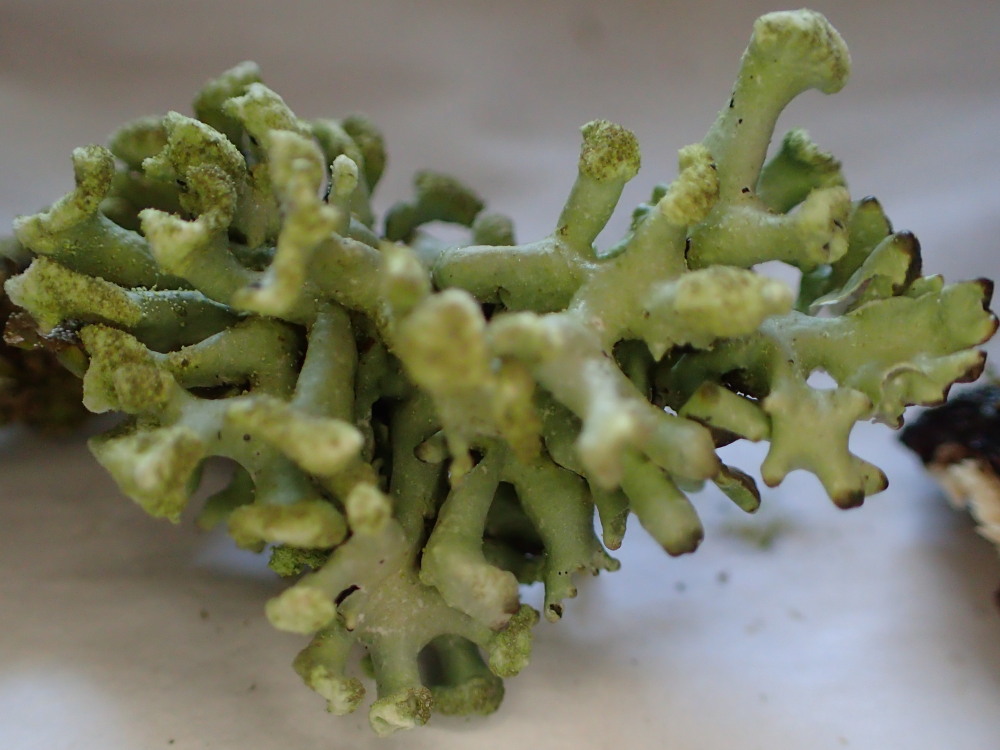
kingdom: Fungi
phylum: Ascomycota
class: Lecanoromycetes
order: Lecanorales
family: Parmeliaceae
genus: Hypogymnia
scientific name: Hypogymnia tubulosa
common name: finger-kvistlav
